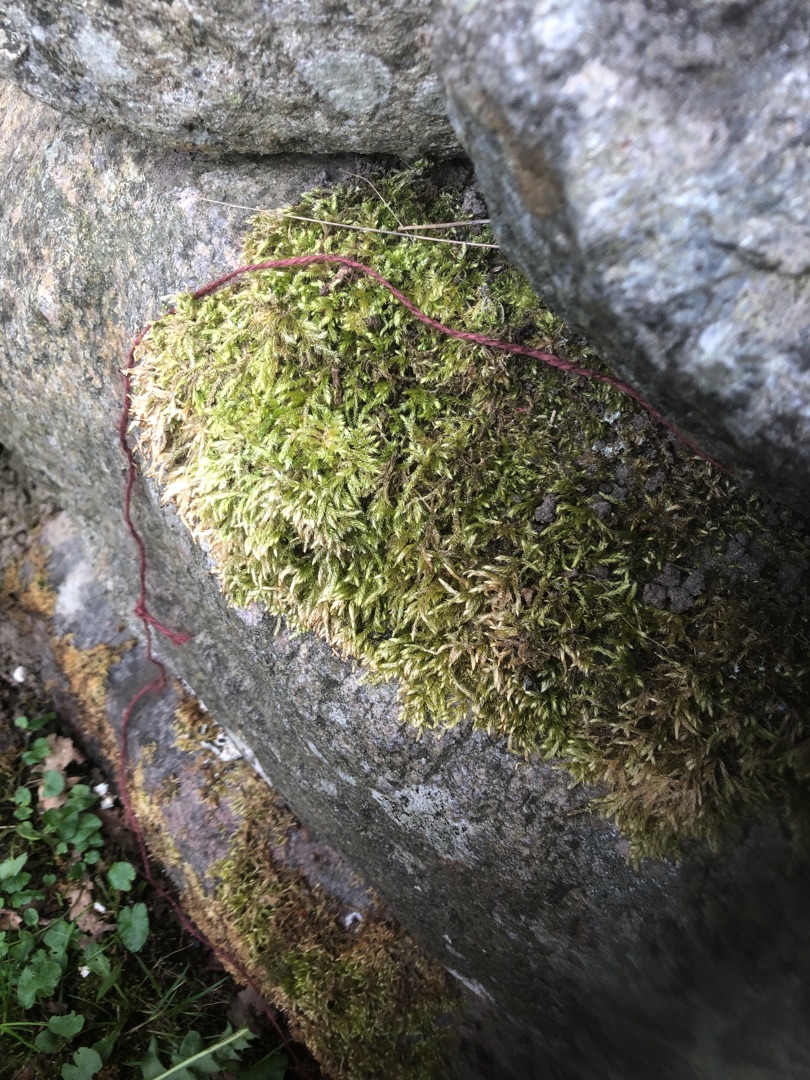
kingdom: Plantae
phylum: Bryophyta
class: Bryopsida
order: Hypnales
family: Brachytheciaceae
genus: Brachythecium
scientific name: Brachythecium rutabulum
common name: Almindelig kortkapsel
